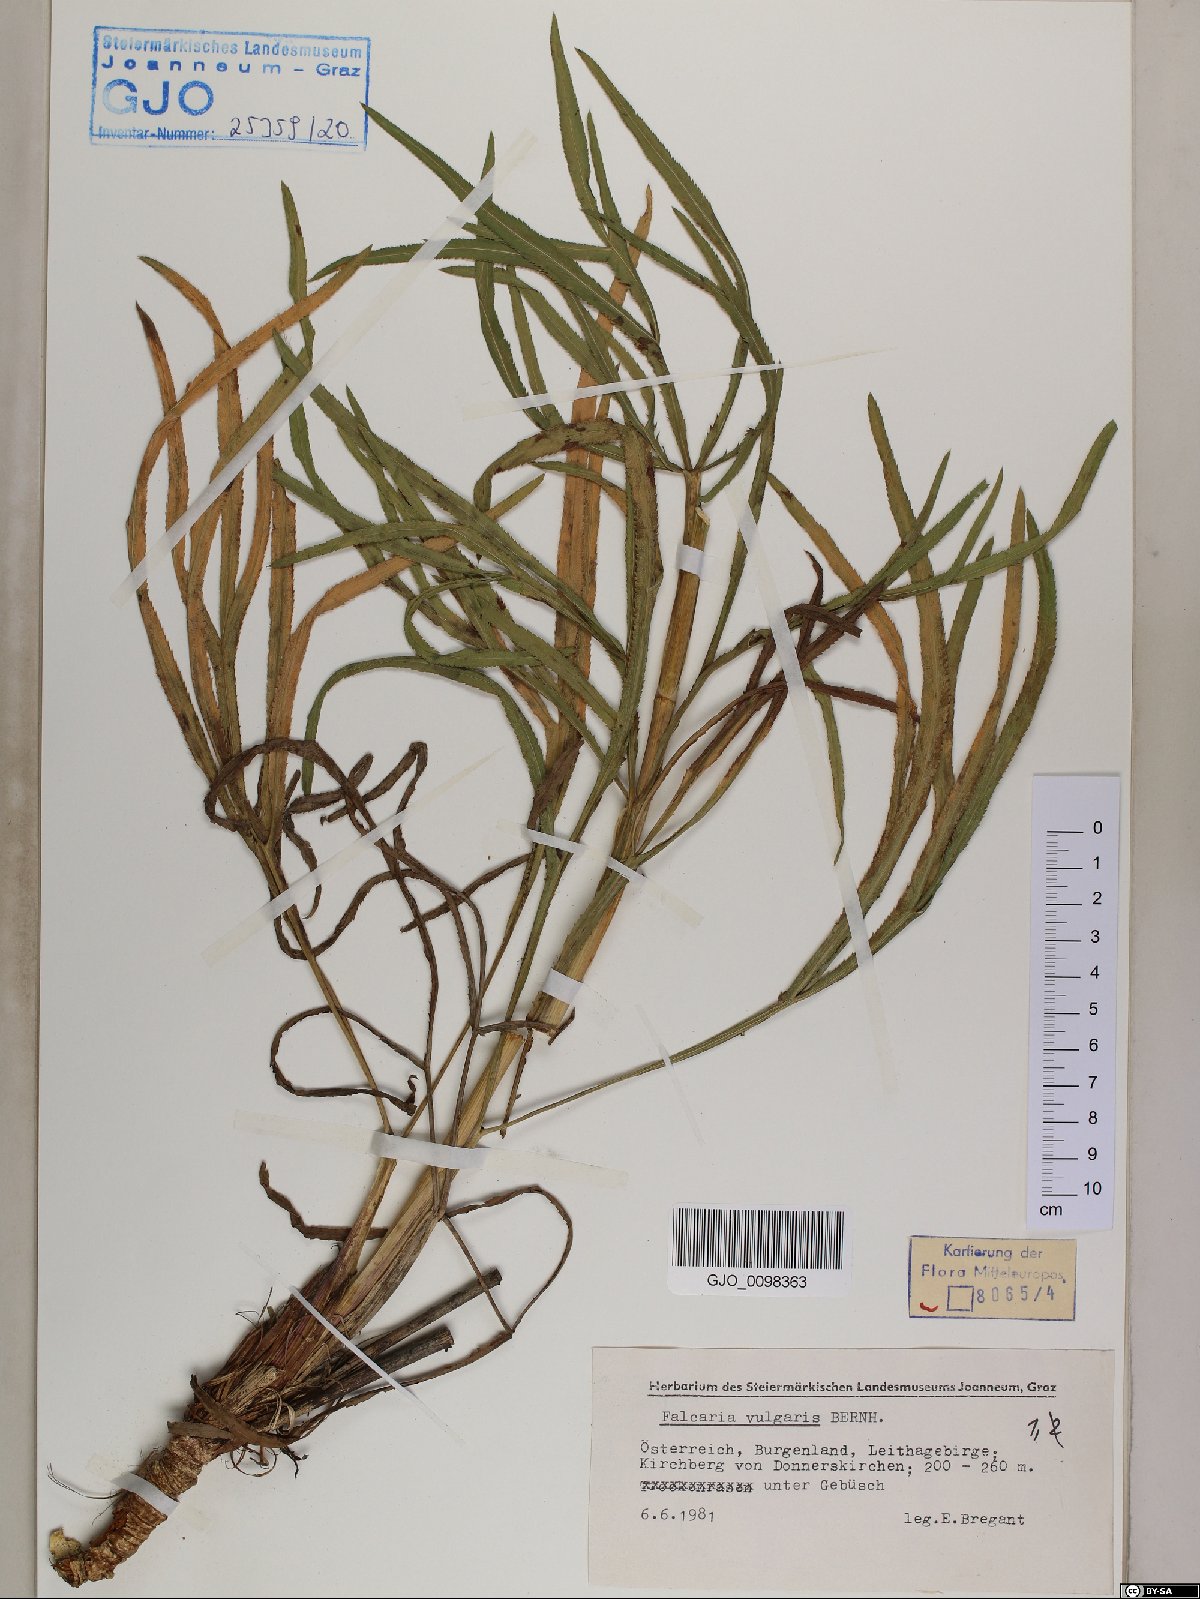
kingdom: Plantae
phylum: Tracheophyta
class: Magnoliopsida
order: Apiales
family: Apiaceae
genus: Falcaria
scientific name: Falcaria vulgaris
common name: Longleaf
